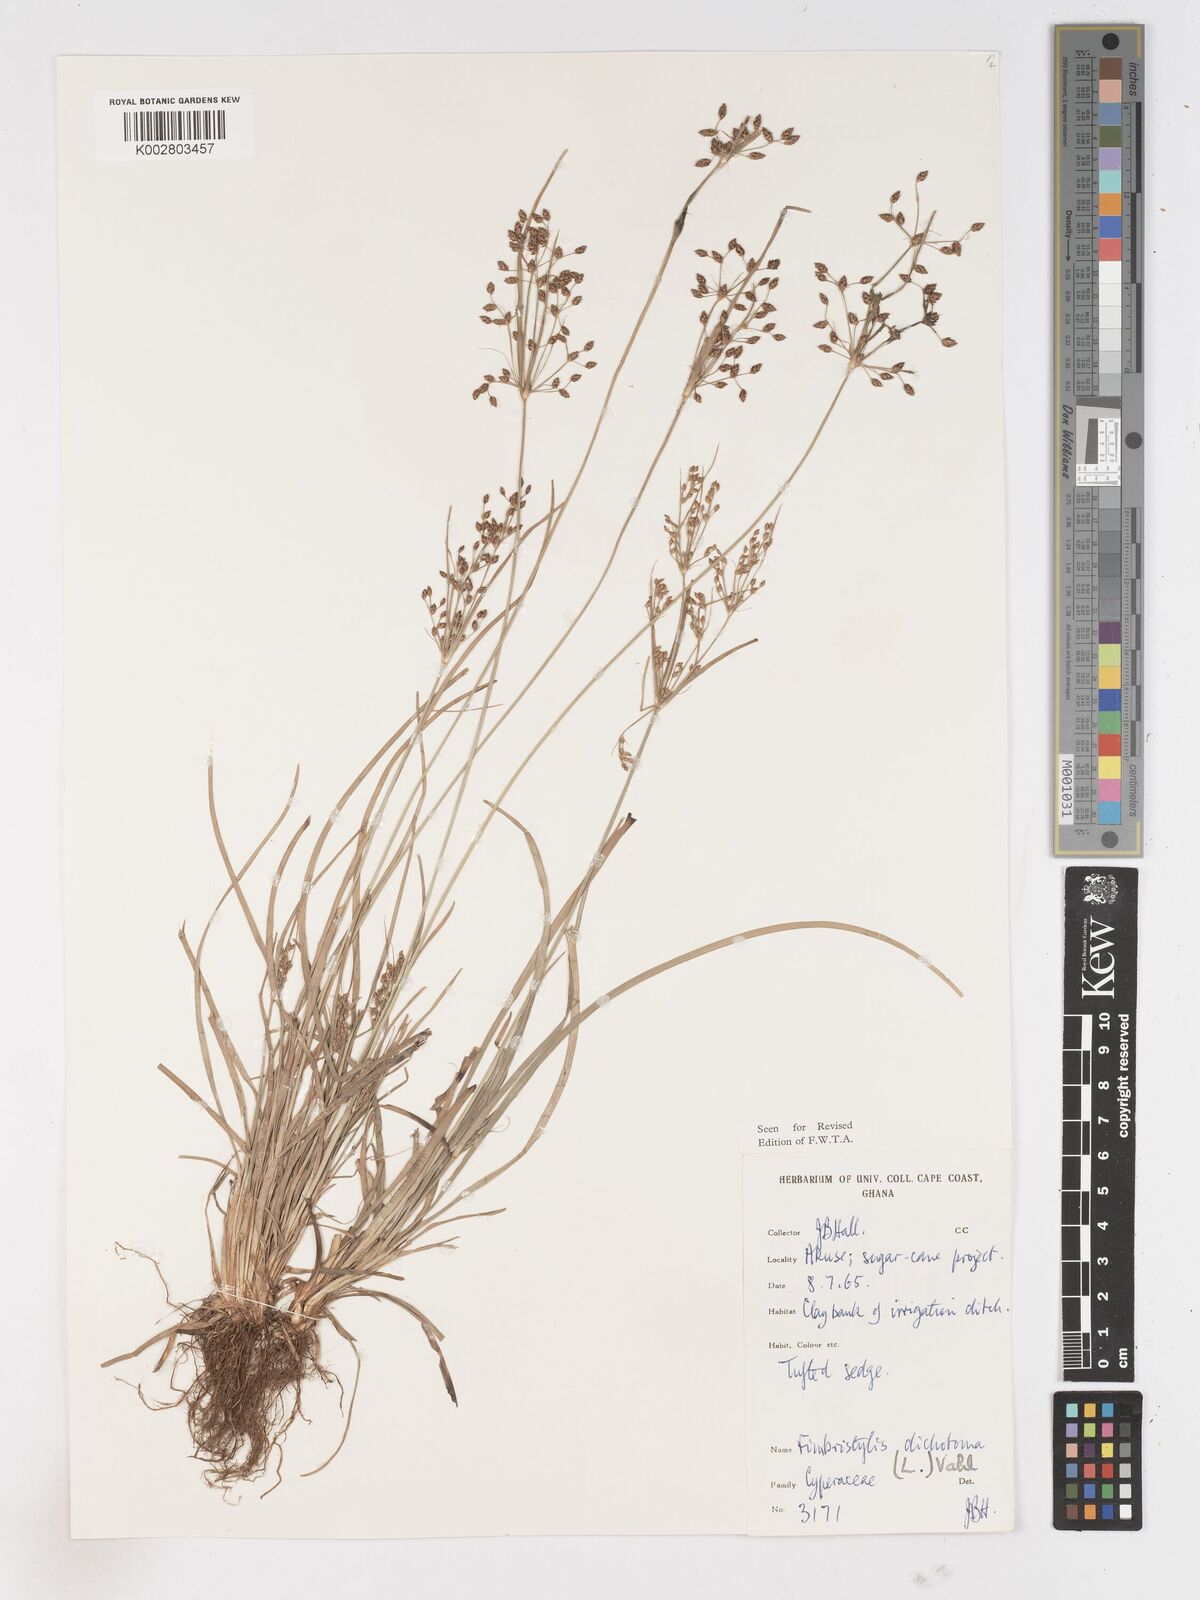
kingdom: Plantae
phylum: Tracheophyta
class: Liliopsida
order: Poales
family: Cyperaceae
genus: Fimbristylis
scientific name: Fimbristylis dichotoma
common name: Forked fimbry
